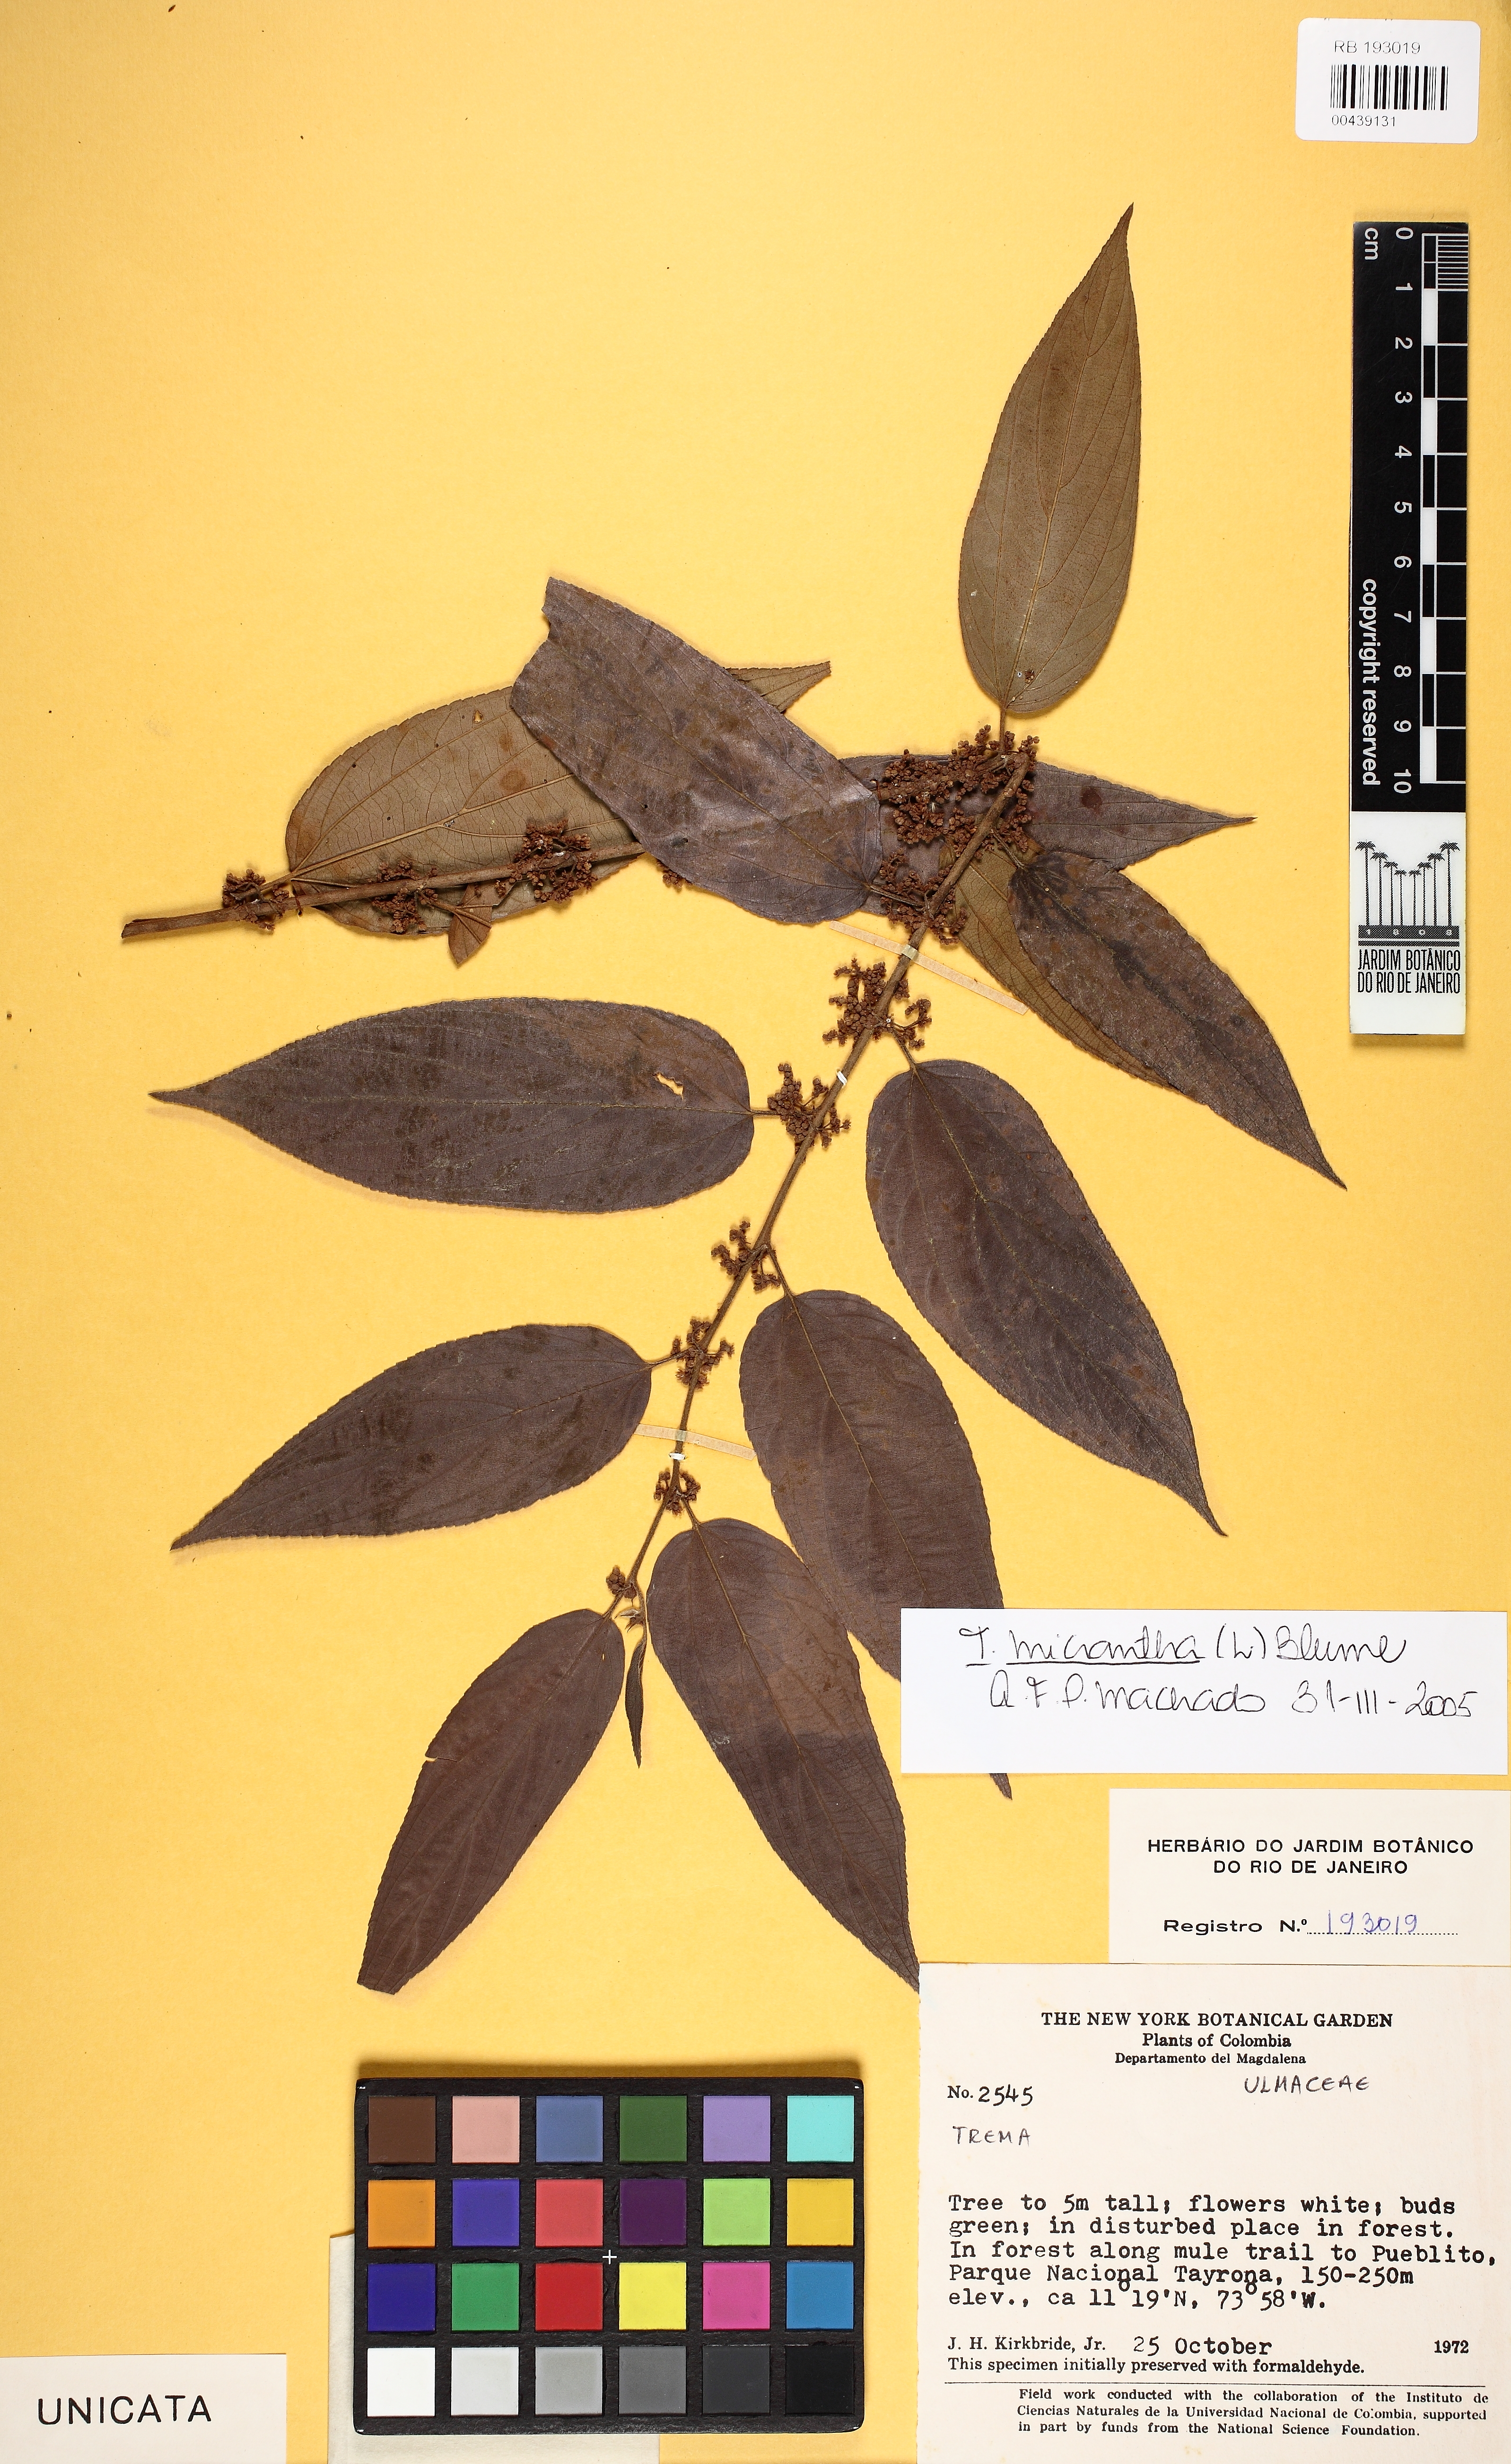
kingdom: Plantae
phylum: Tracheophyta
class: Magnoliopsida
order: Rosales
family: Cannabaceae
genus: Trema
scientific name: Trema micranthum
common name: Jamaican nettletree
